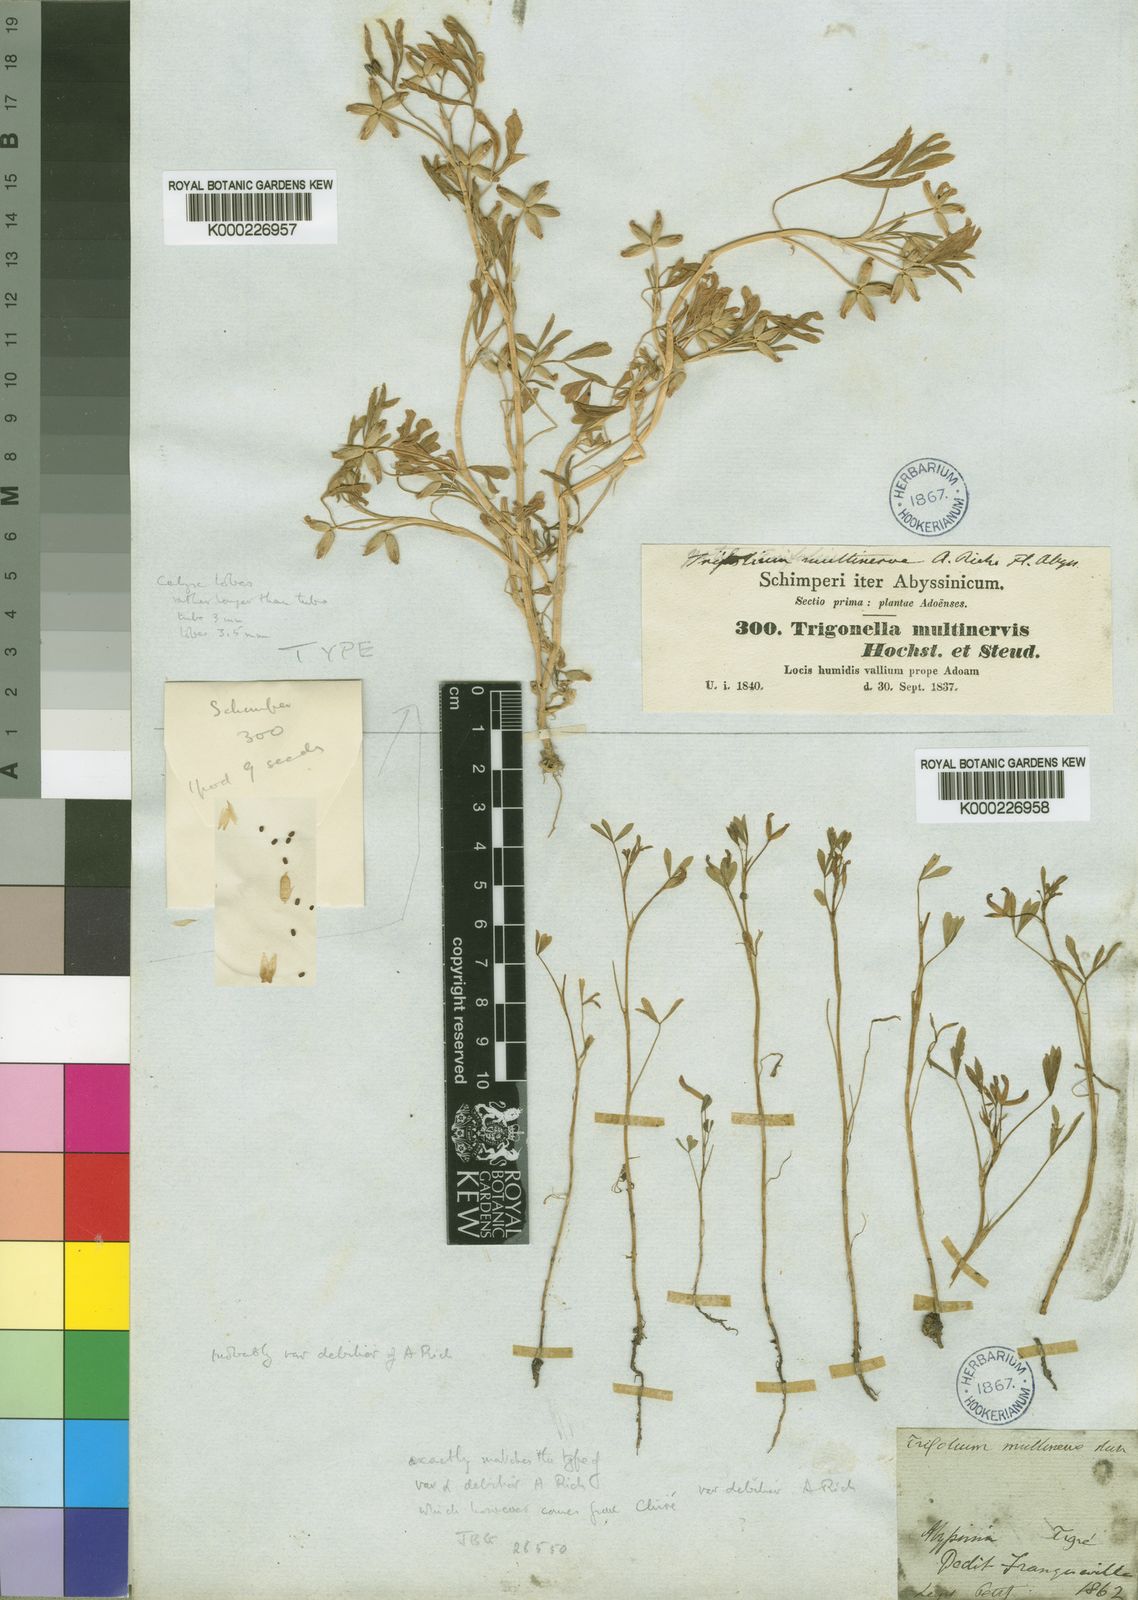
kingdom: Plantae
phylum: Tracheophyta
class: Magnoliopsida
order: Fabales
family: Fabaceae
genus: Trifolium
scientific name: Trifolium multinerve
